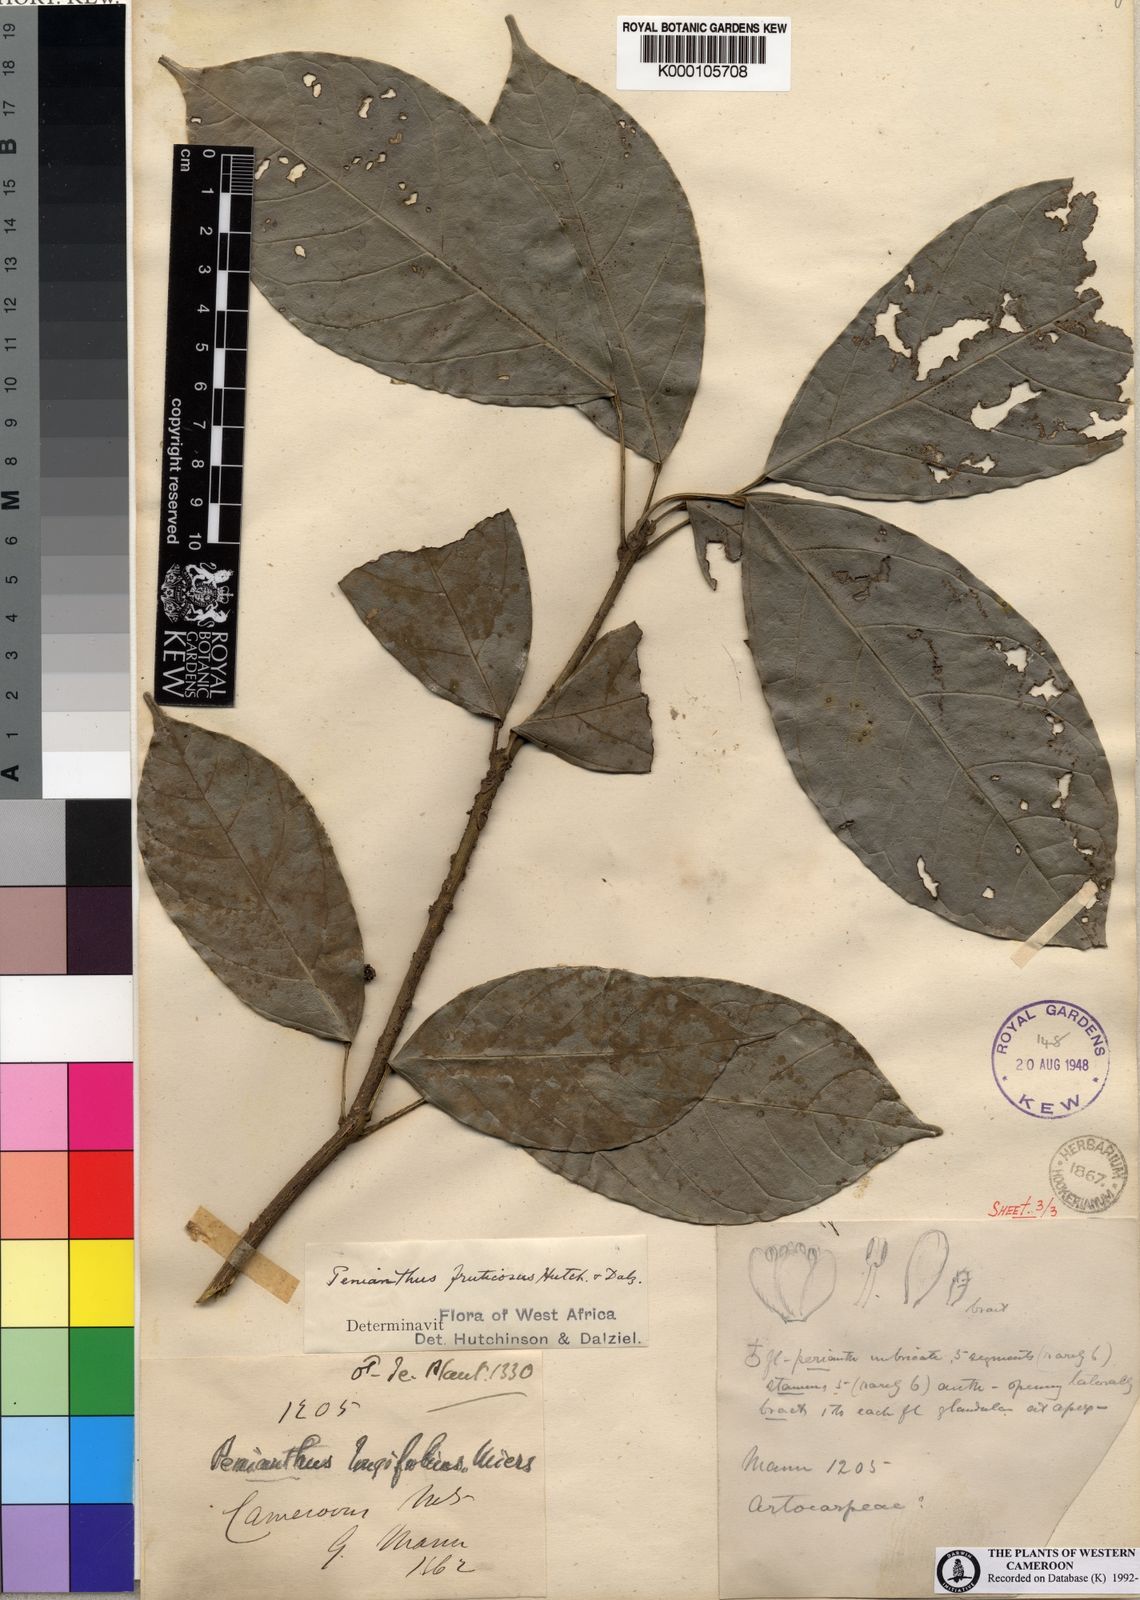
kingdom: Plantae
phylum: Tracheophyta
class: Magnoliopsida
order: Ranunculales
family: Menispermaceae
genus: Penianthus
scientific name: Penianthus longifolius
